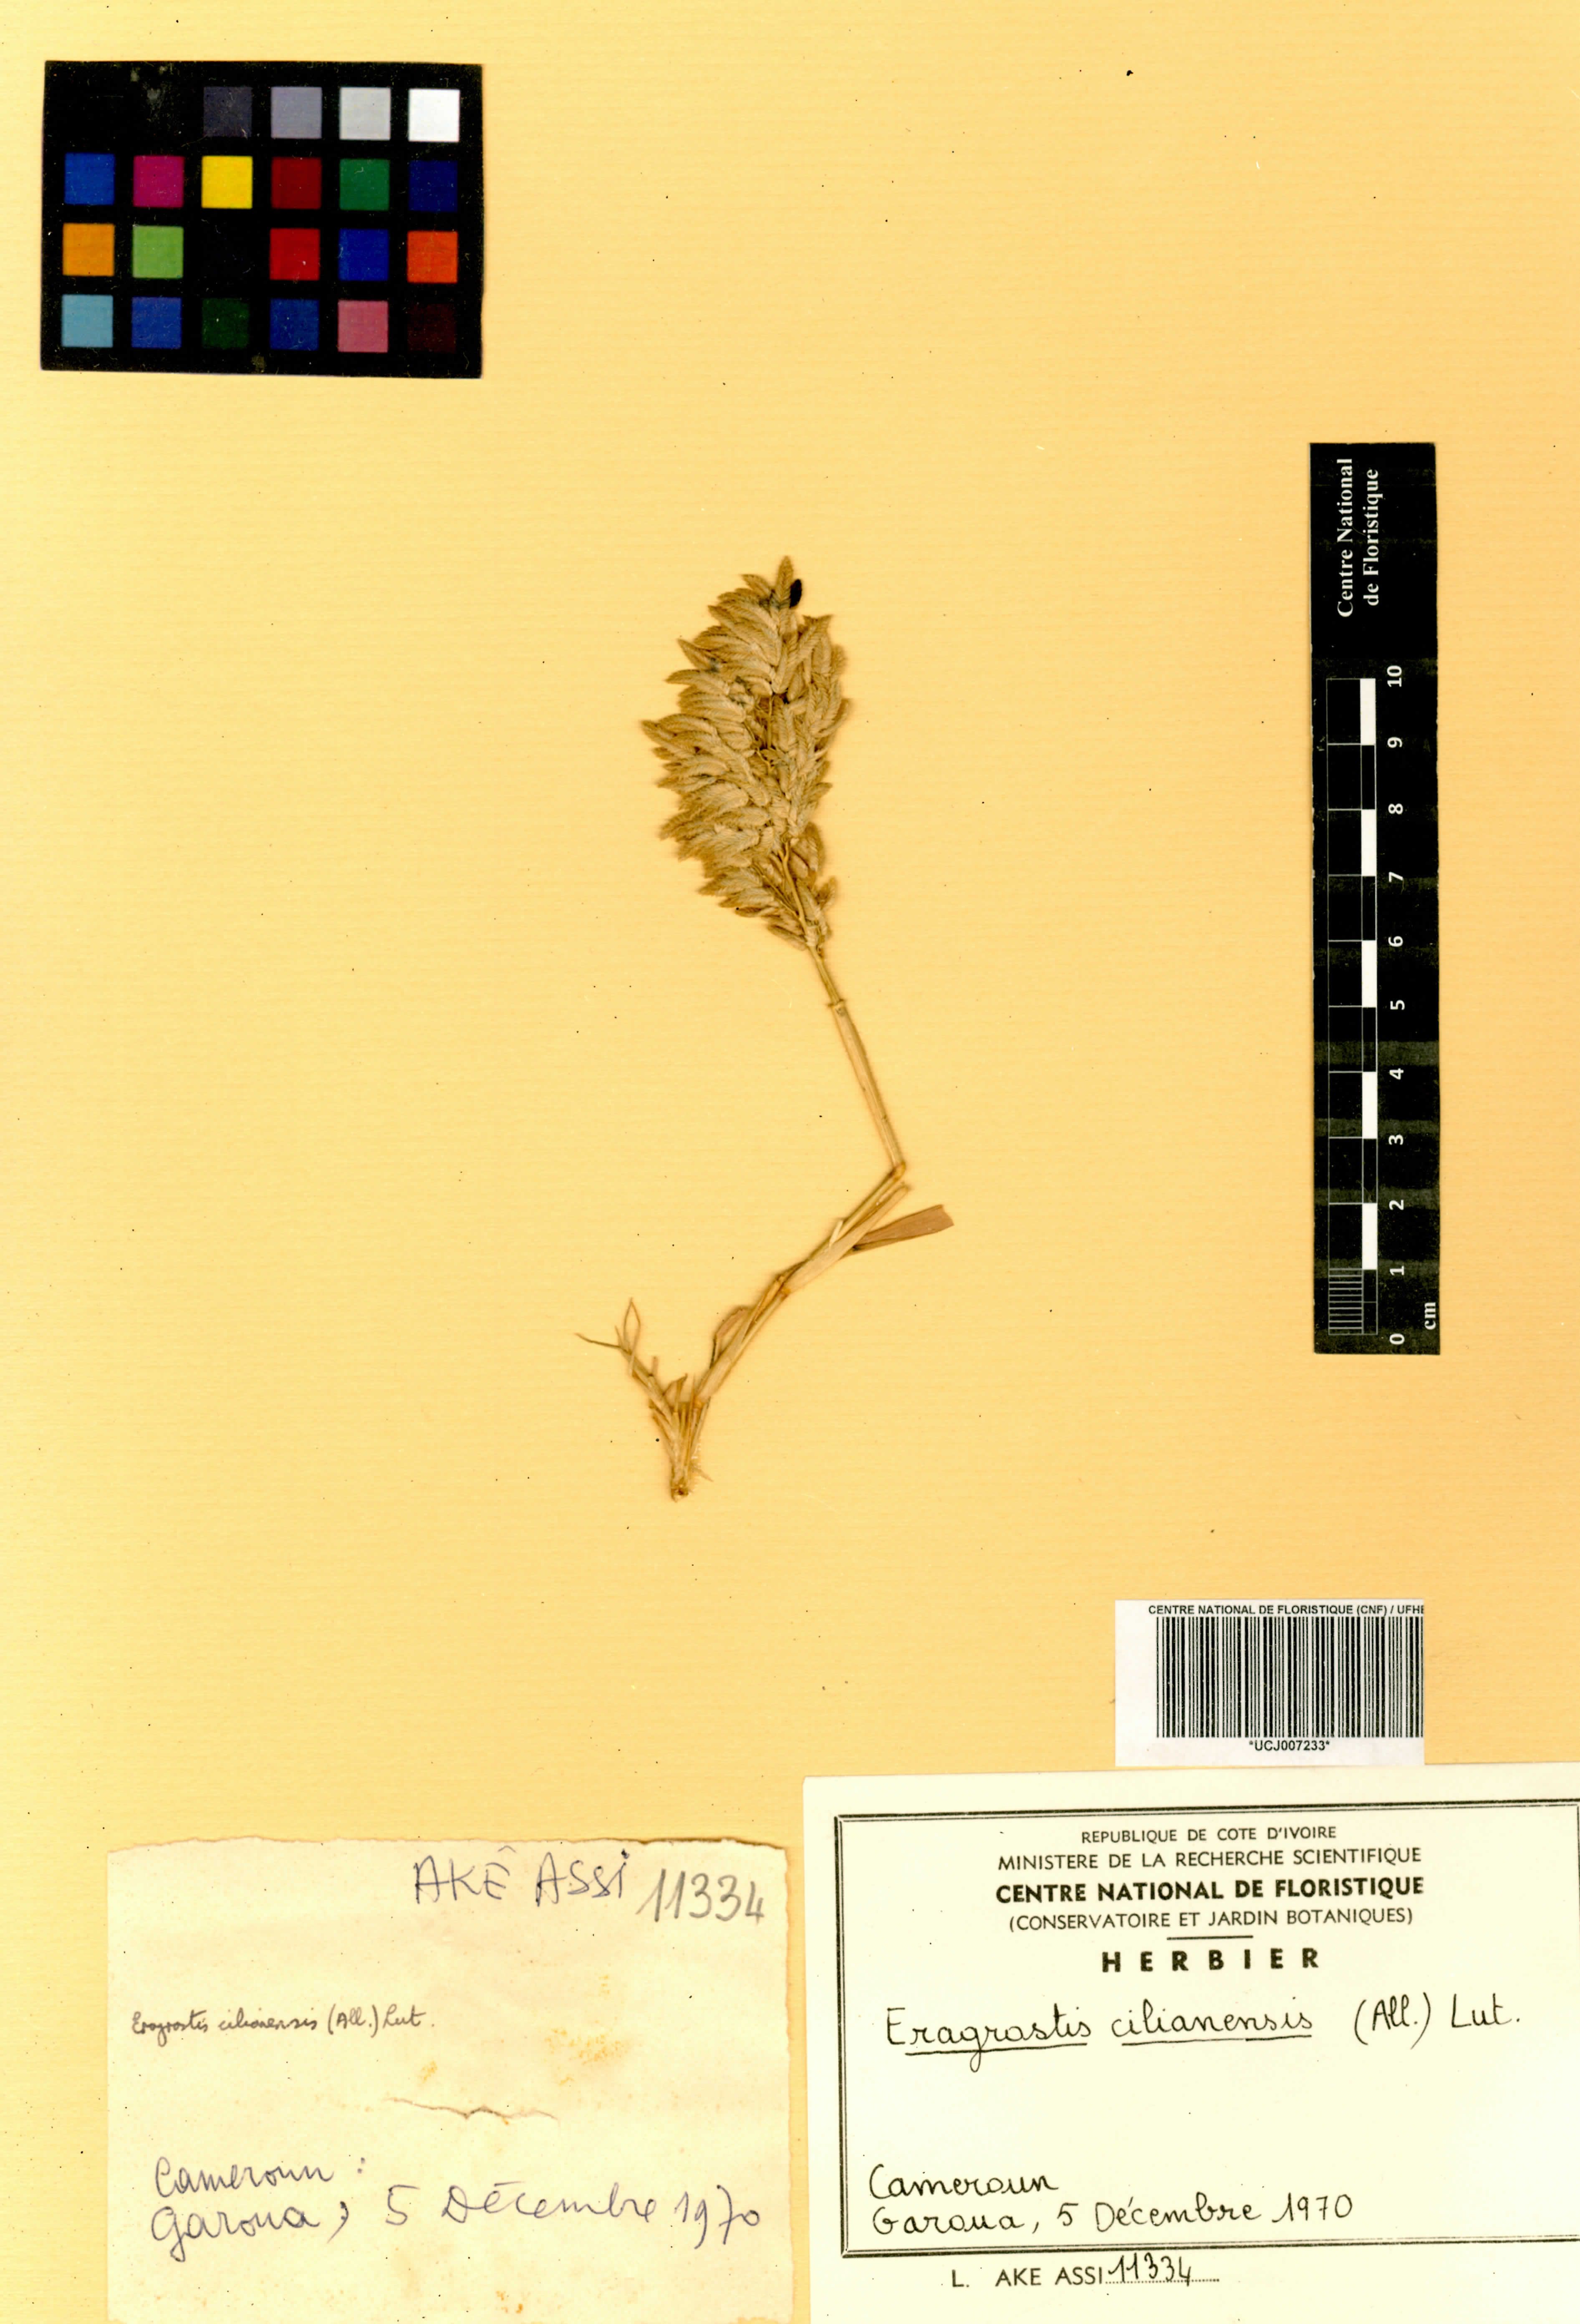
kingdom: Plantae
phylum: Tracheophyta
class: Liliopsida
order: Poales
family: Poaceae
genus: Eragrostis
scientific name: Eragrostis cilianensis
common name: Stinkgrass
